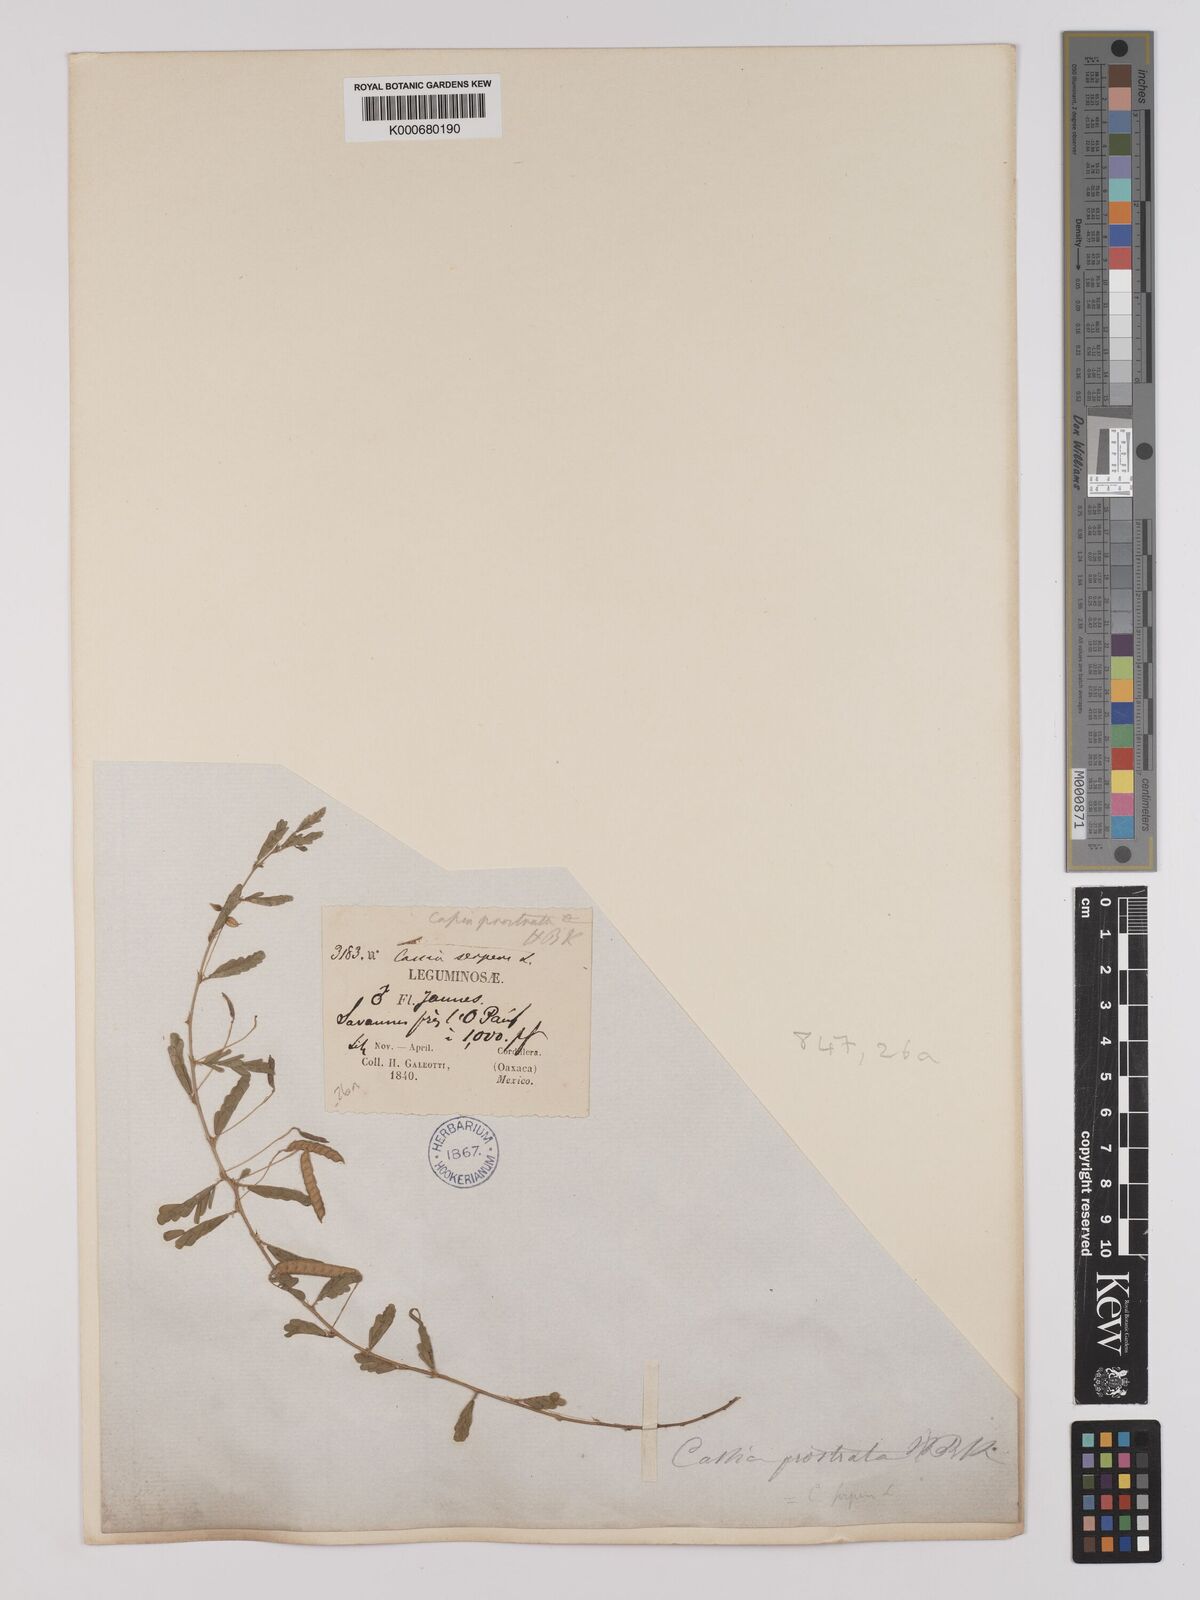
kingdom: Plantae
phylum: Tracheophyta
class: Magnoliopsida
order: Fabales
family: Fabaceae
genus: Chamaecrista
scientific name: Chamaecrista serpens
